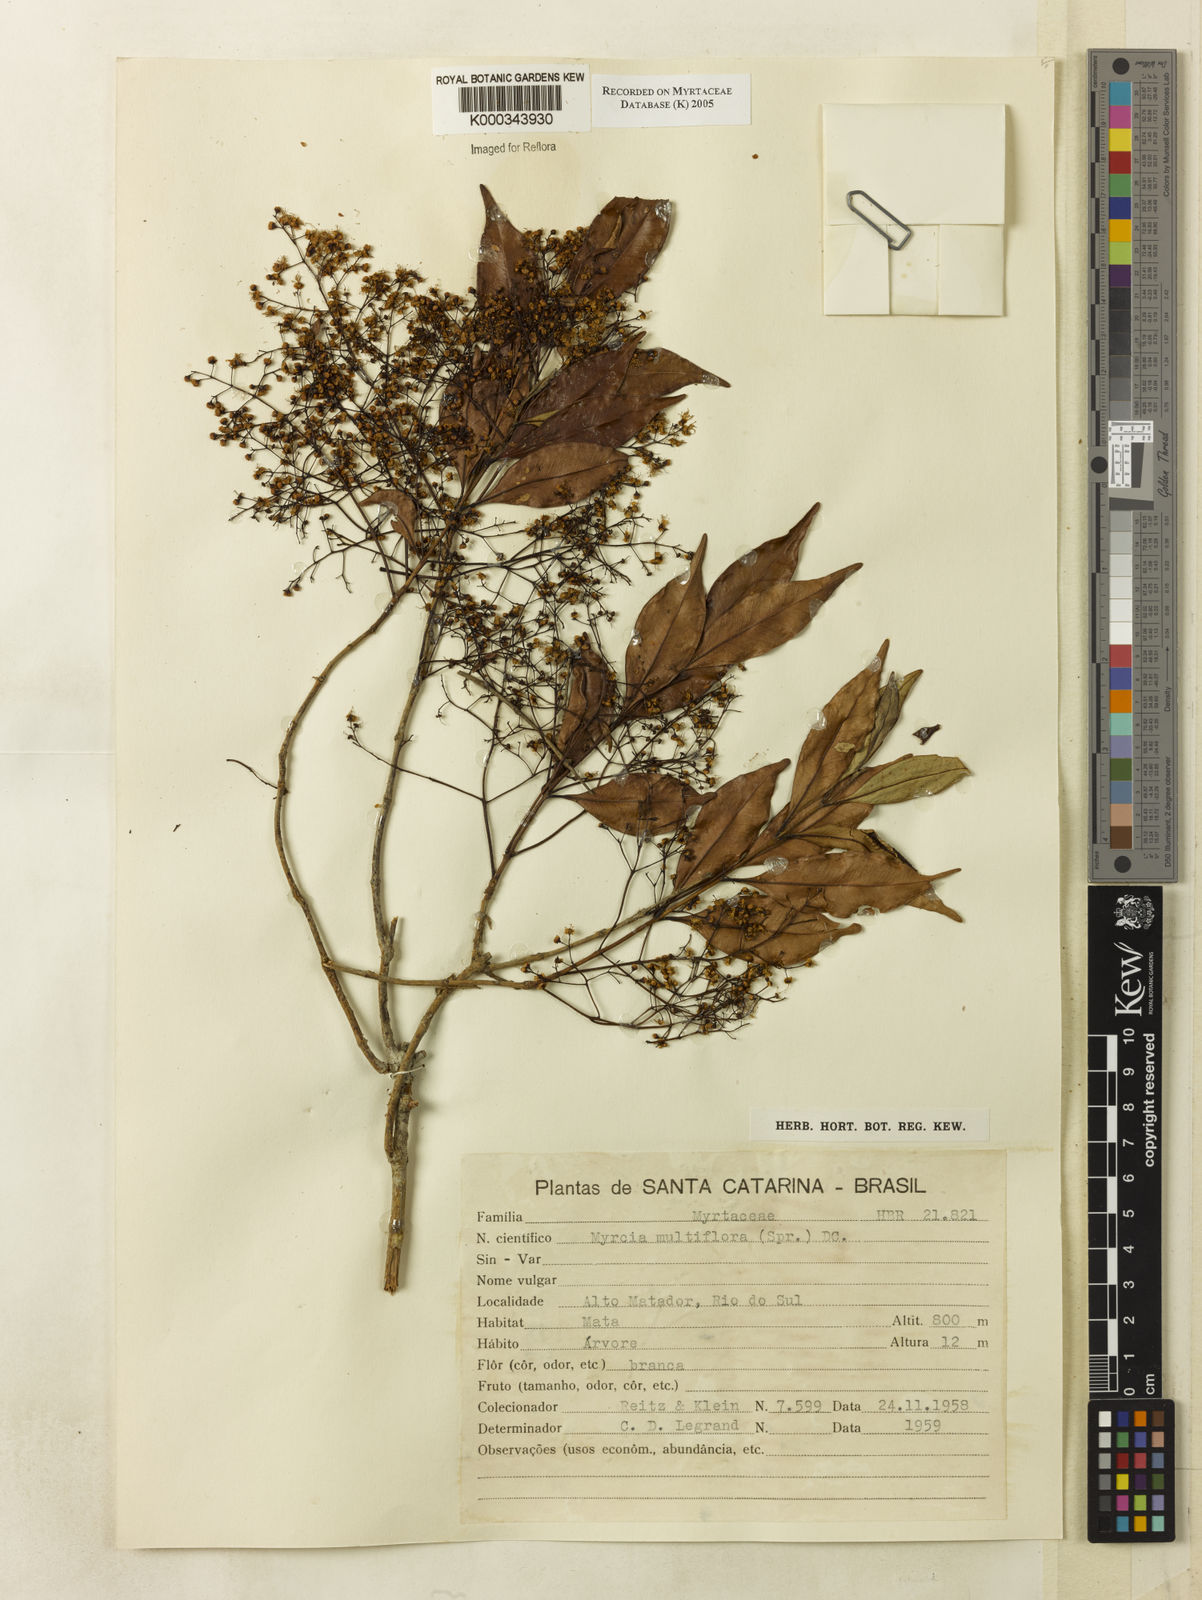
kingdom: Plantae
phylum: Tracheophyta
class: Magnoliopsida
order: Myrtales
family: Myrtaceae
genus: Myrcia
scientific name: Myrcia multiflora
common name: Pedra hume
